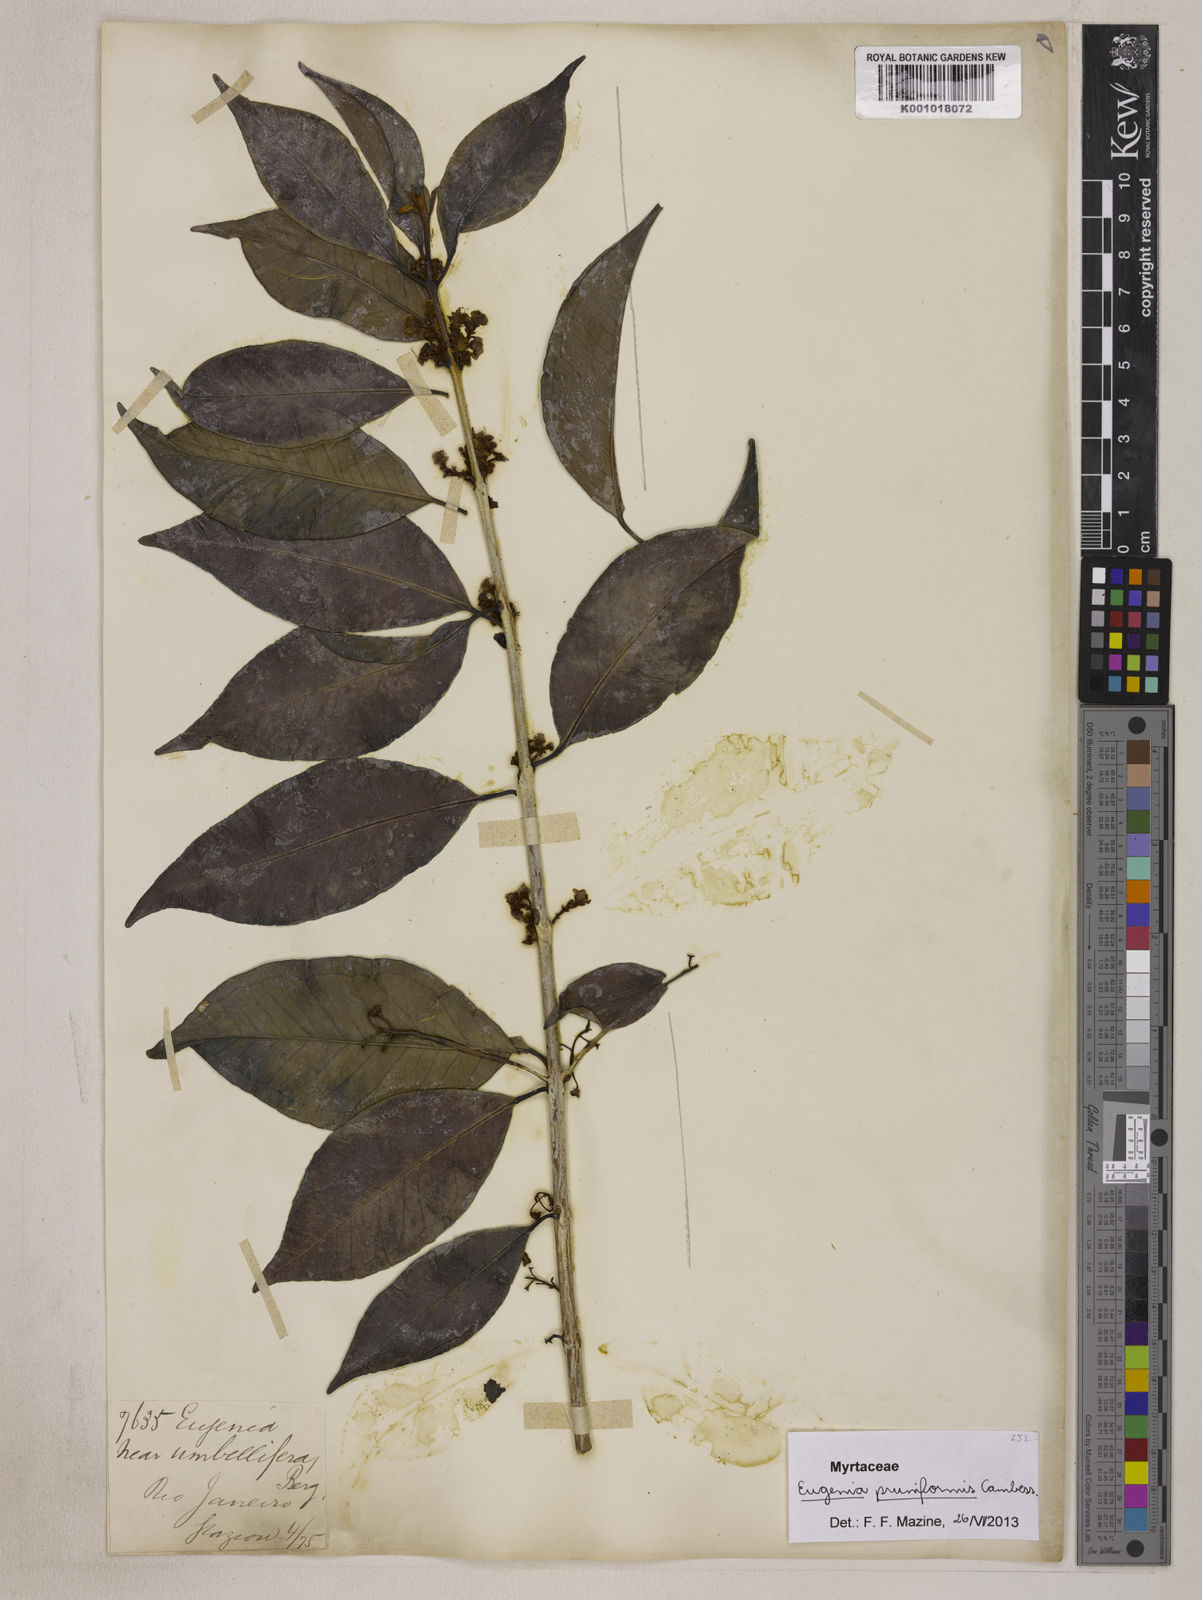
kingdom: Plantae
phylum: Tracheophyta
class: Magnoliopsida
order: Myrtales
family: Myrtaceae
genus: Eugenia
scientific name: Eugenia pruniformis
